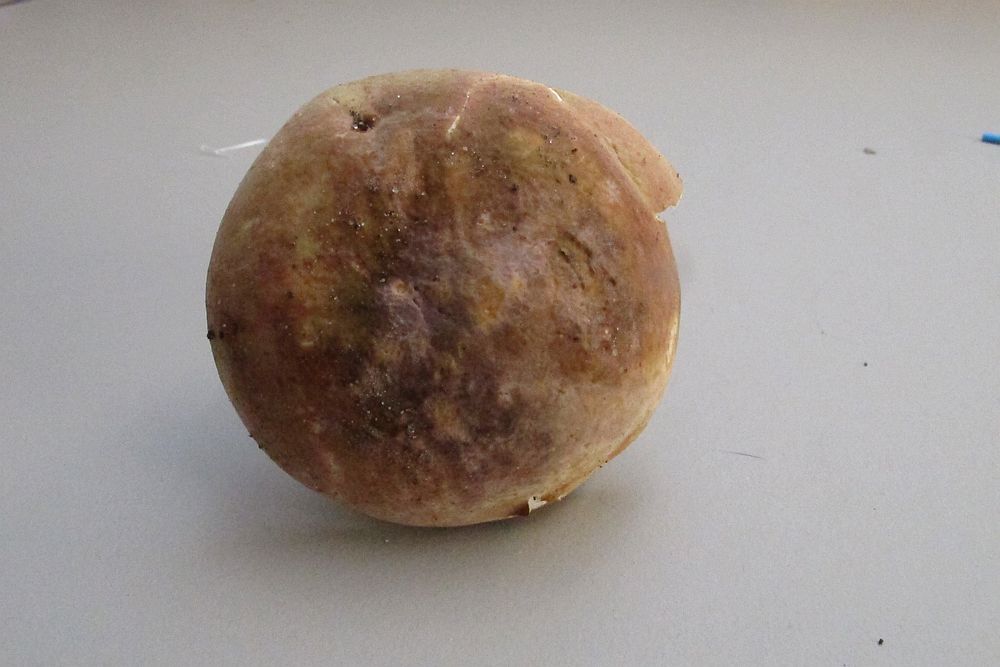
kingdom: Fungi
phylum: Basidiomycota
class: Agaricomycetes
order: Russulales
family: Russulaceae
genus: Russula
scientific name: Russula
